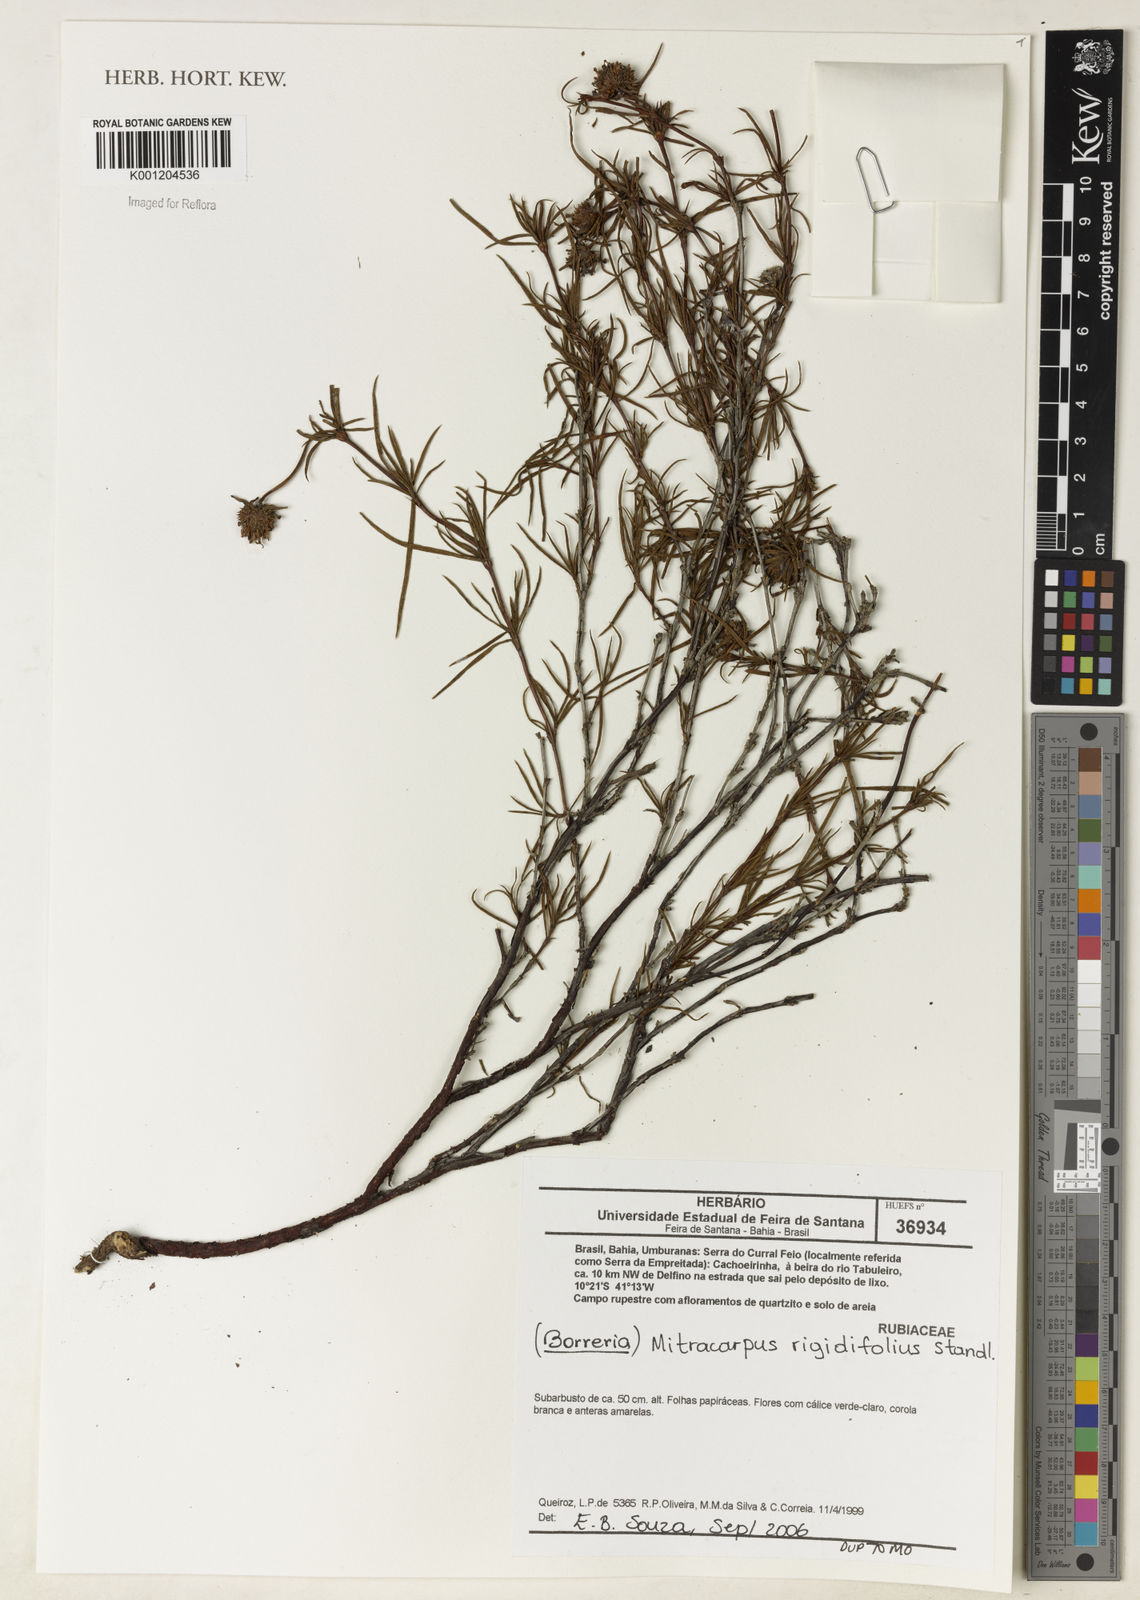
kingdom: Plantae
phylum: Tracheophyta
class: Magnoliopsida
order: Gentianales
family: Rubiaceae
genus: Mitracarpus
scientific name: Mitracarpus rigidifolius
